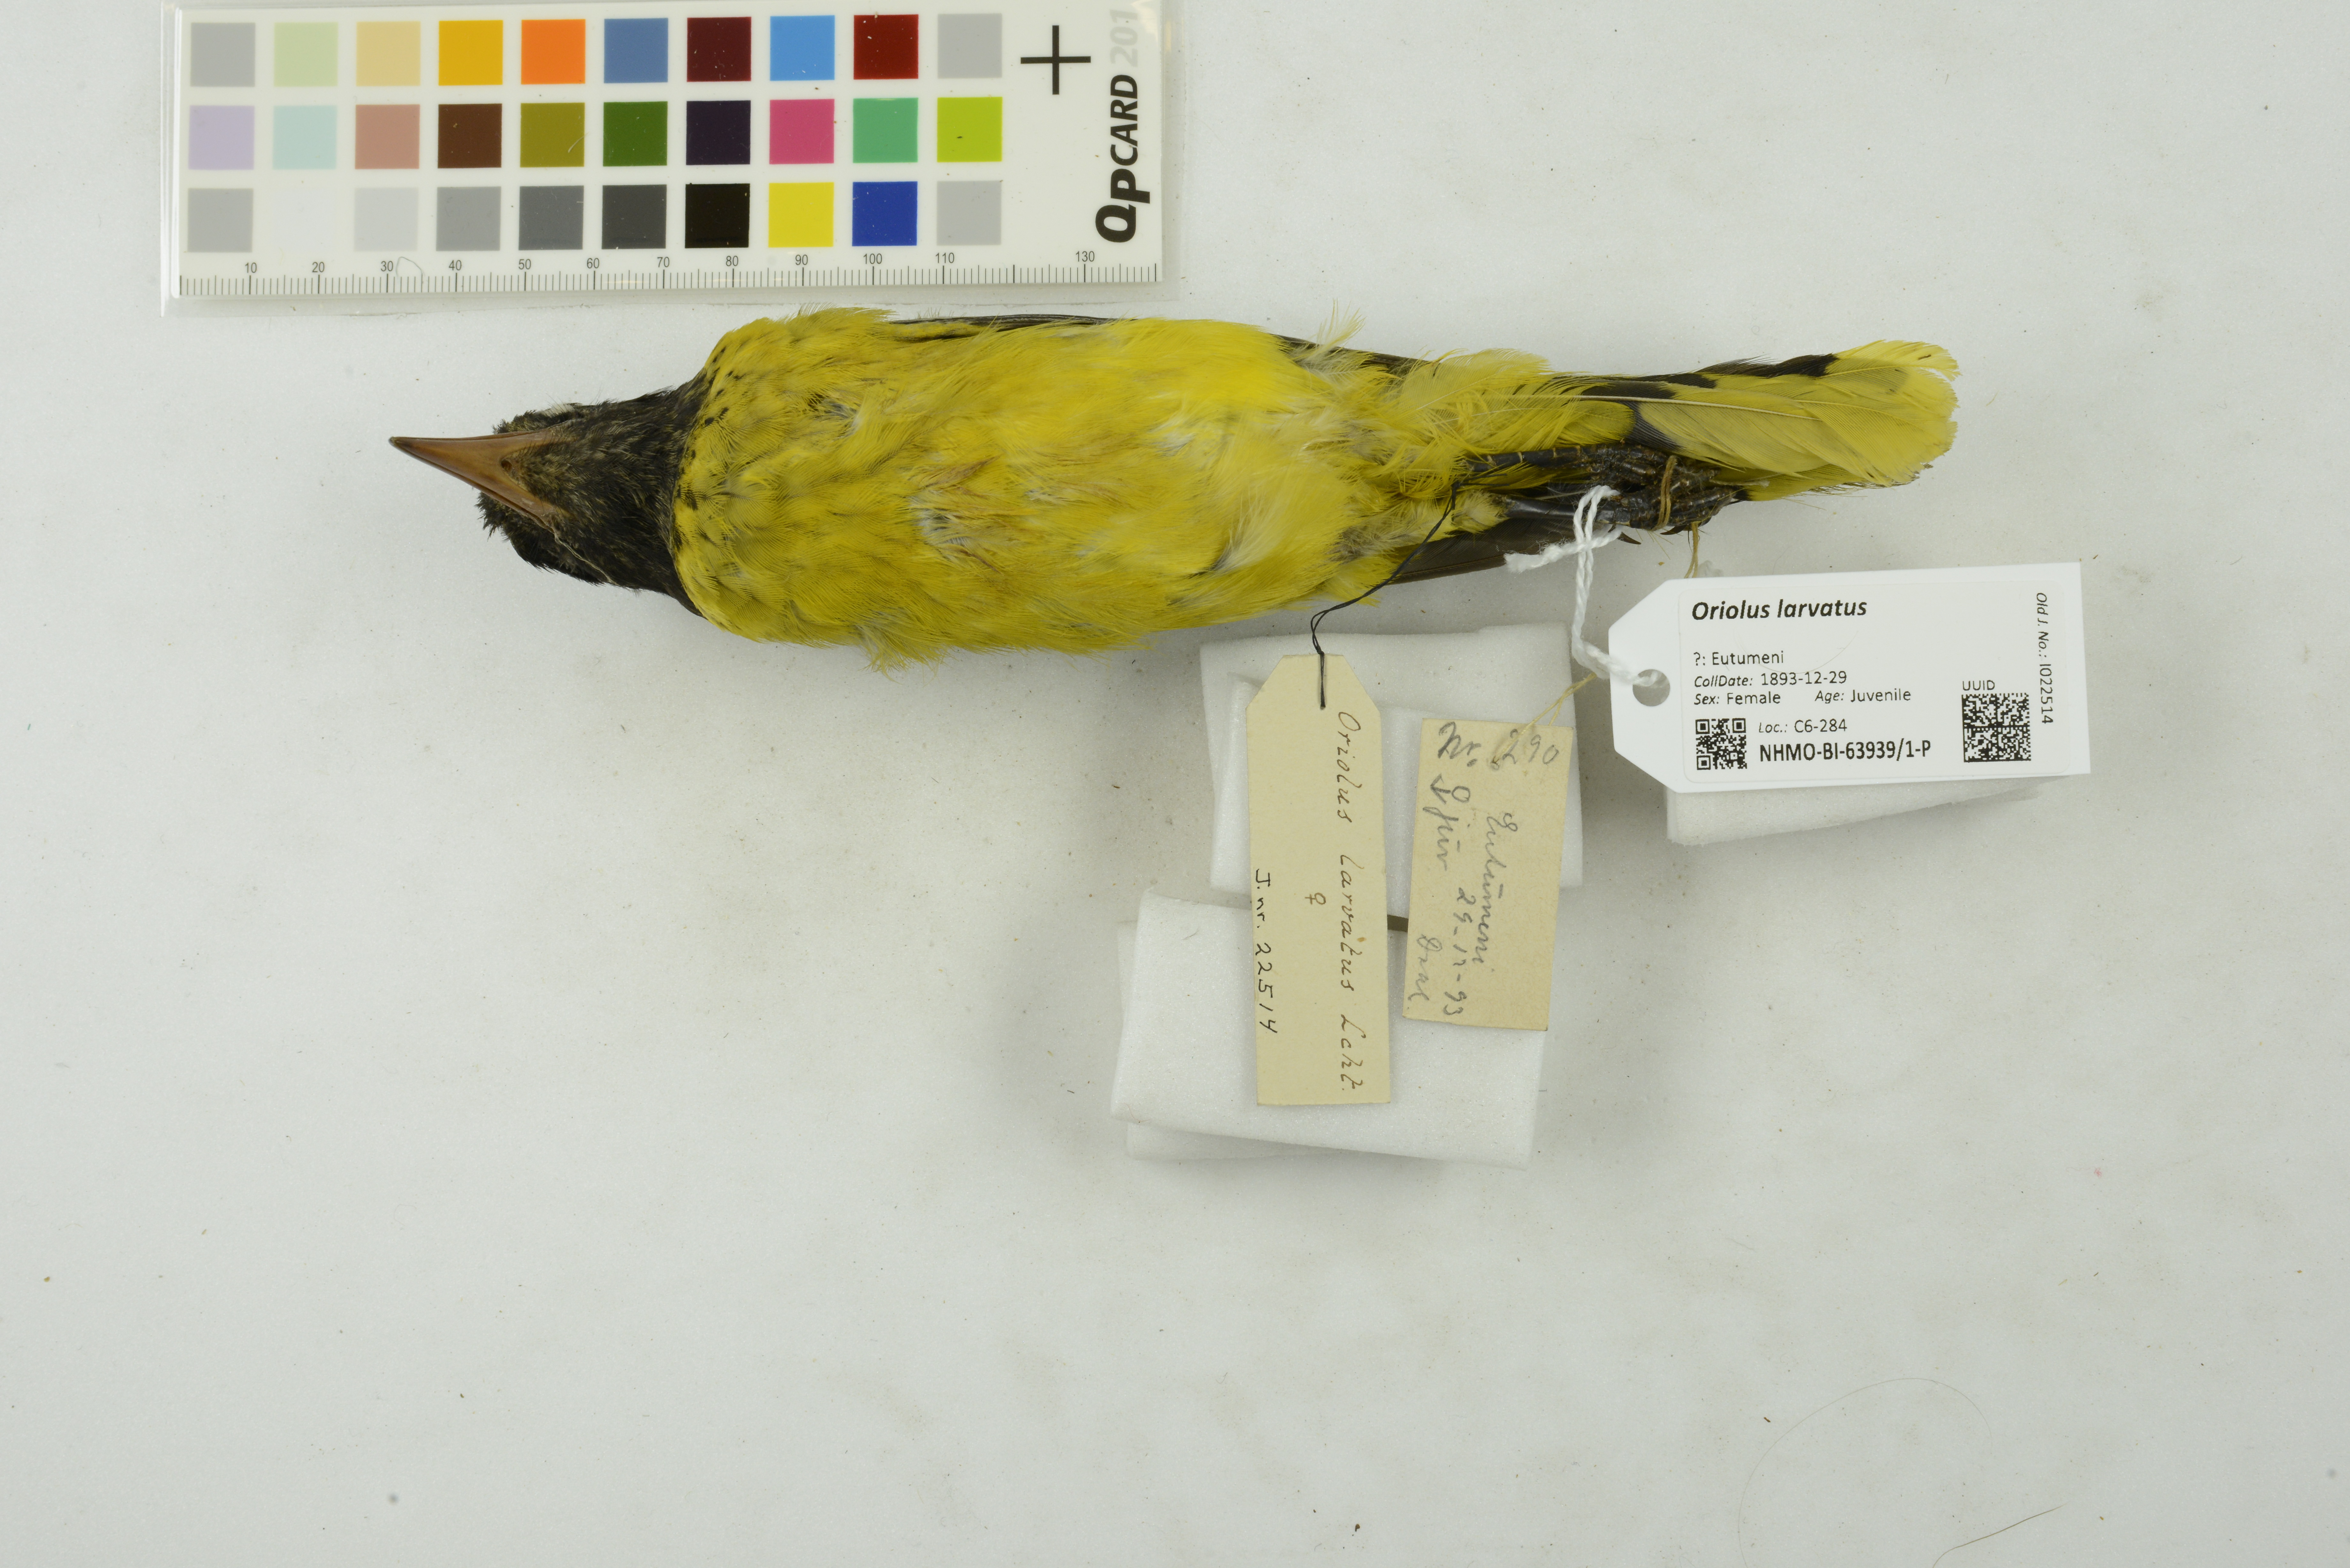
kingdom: Animalia
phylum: Chordata
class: Aves
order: Passeriformes
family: Oriolidae
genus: Oriolus
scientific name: Oriolus larvatus
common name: Black-headed oriole
